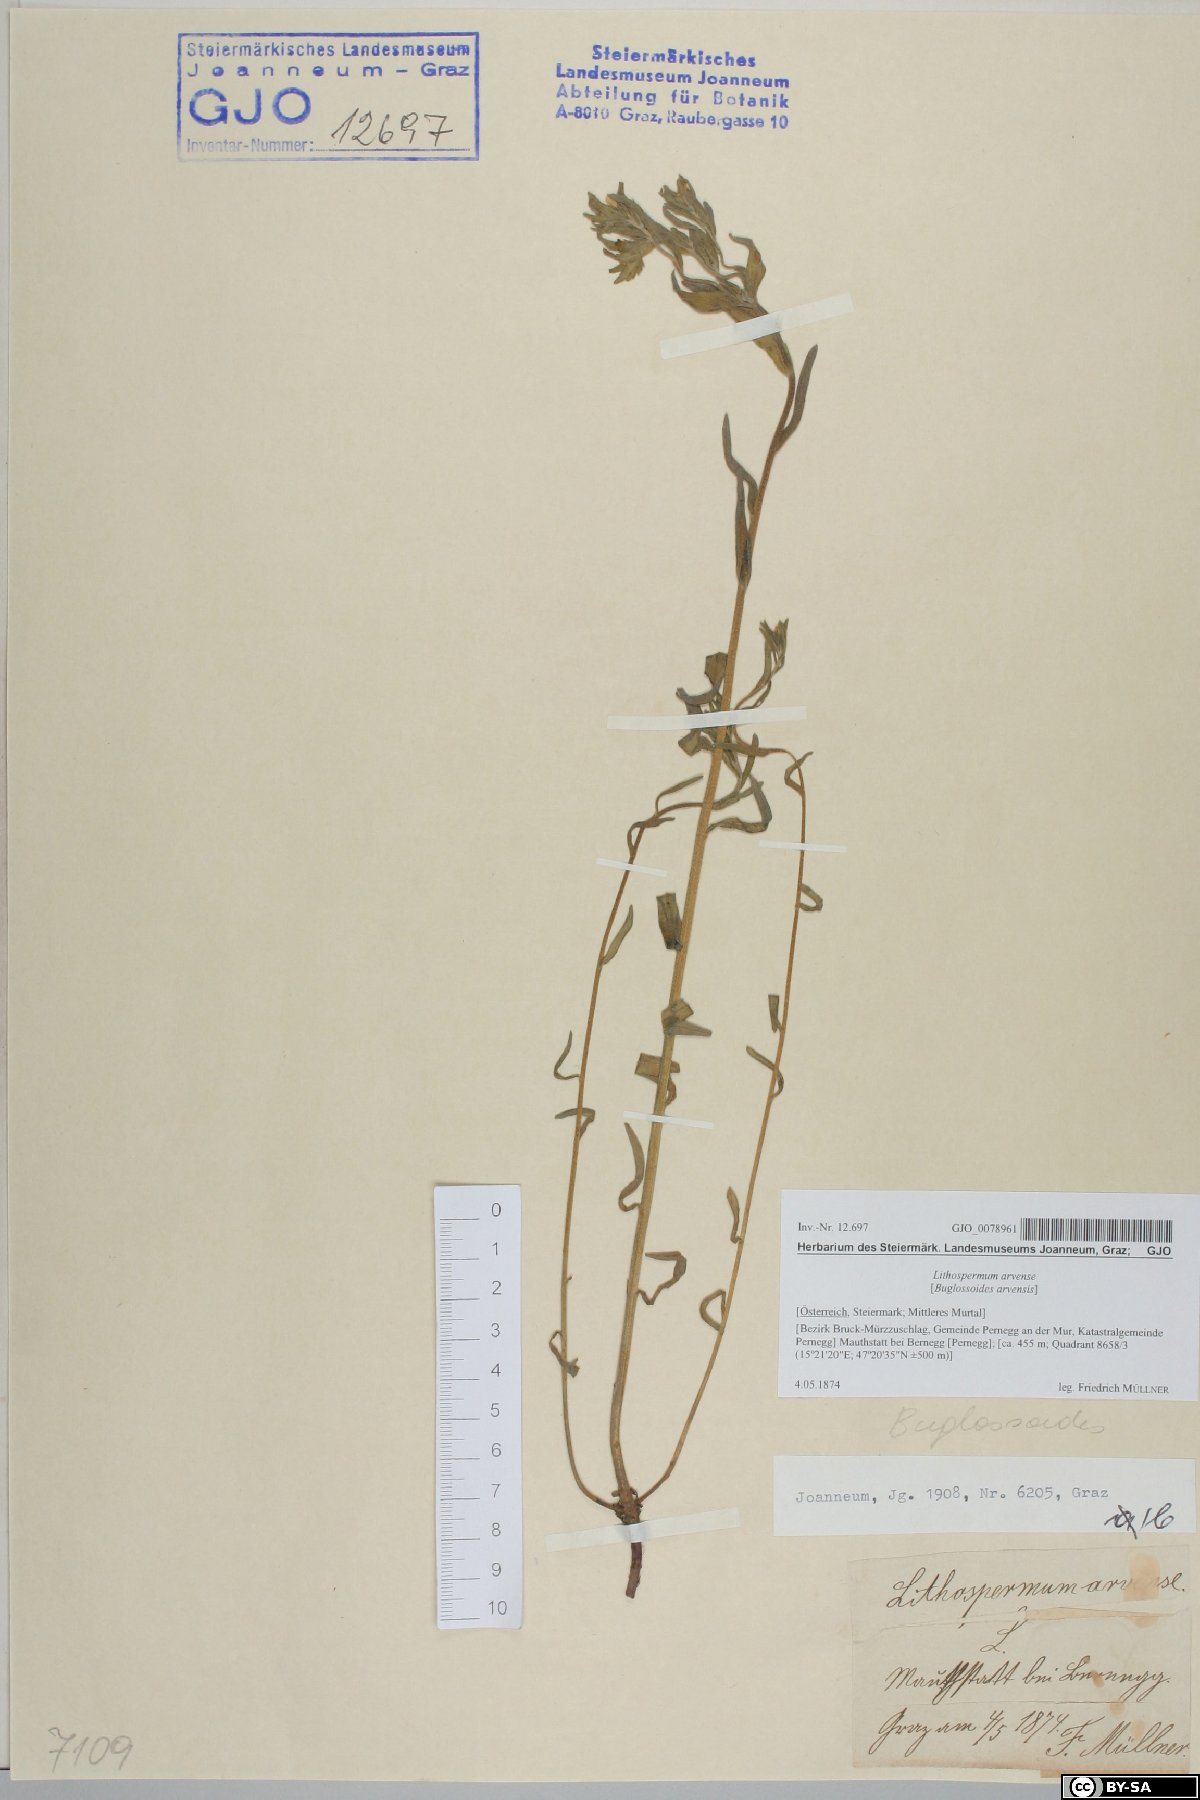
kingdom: Plantae
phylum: Tracheophyta
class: Magnoliopsida
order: Boraginales
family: Boraginaceae
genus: Buglossoides
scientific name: Buglossoides arvensis
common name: Corn gromwell
